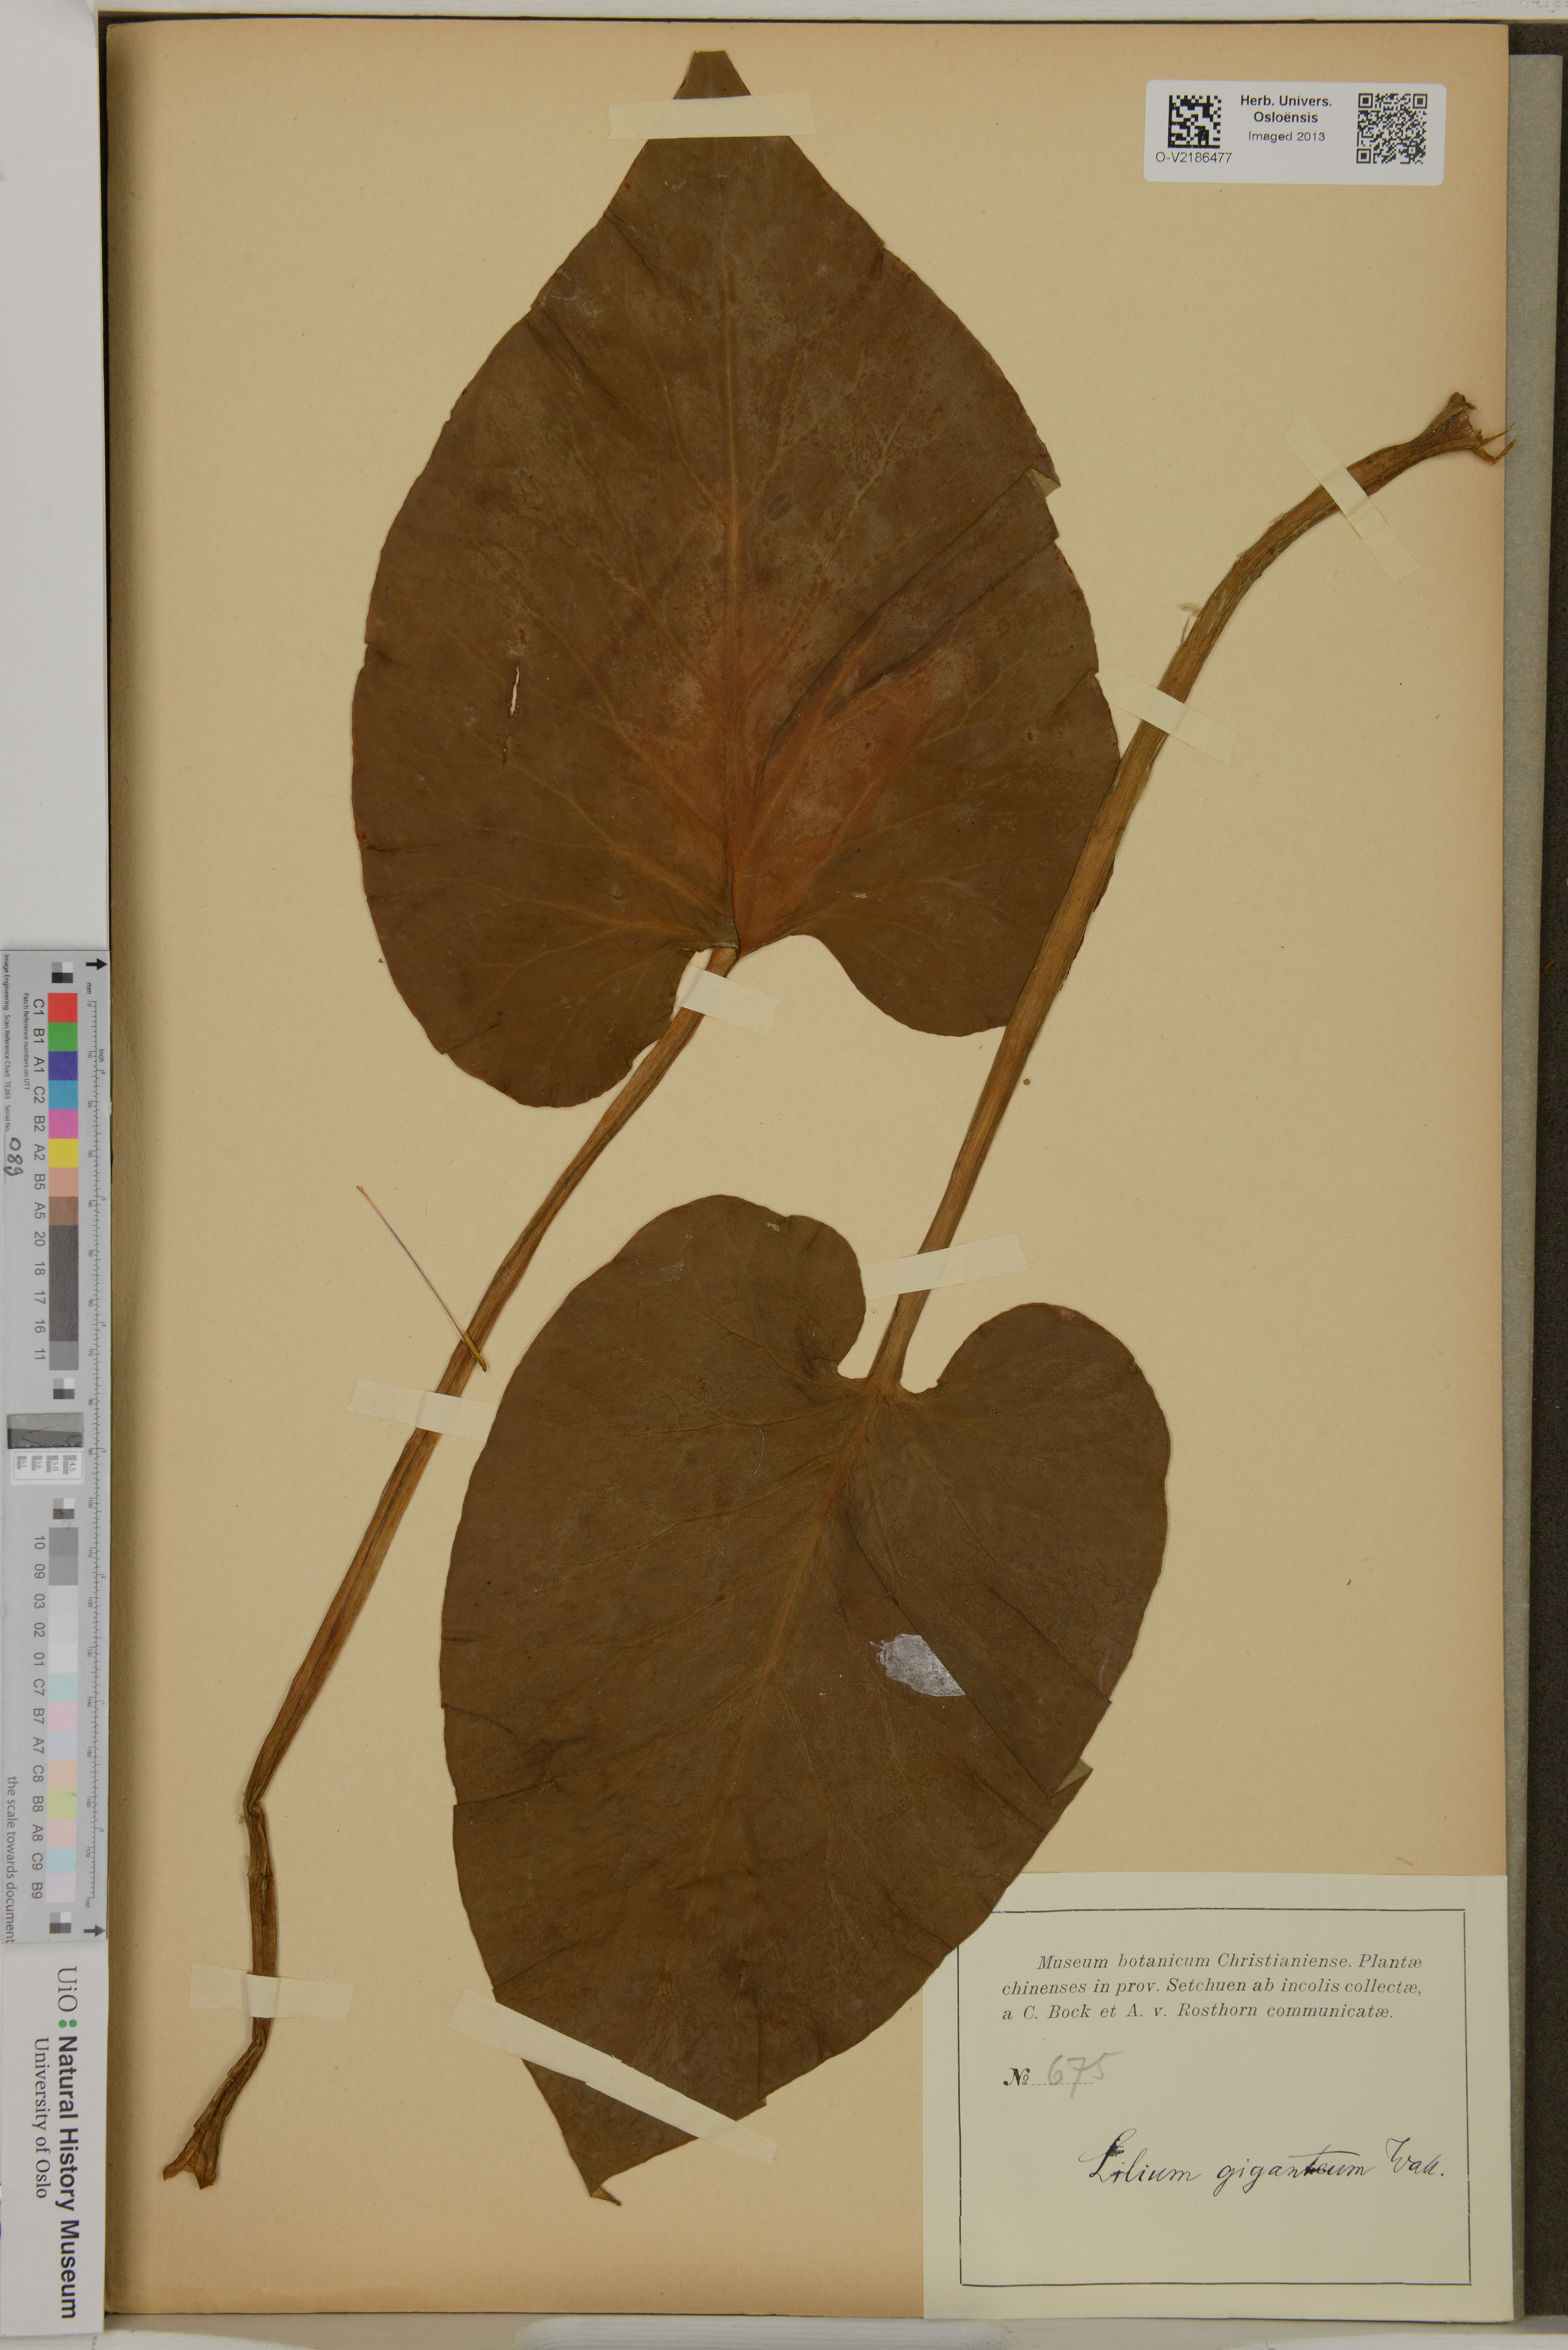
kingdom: Plantae
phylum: Tracheophyta
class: Liliopsida
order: Liliales
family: Liliaceae
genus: Cardiocrinum
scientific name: Cardiocrinum giganteum
